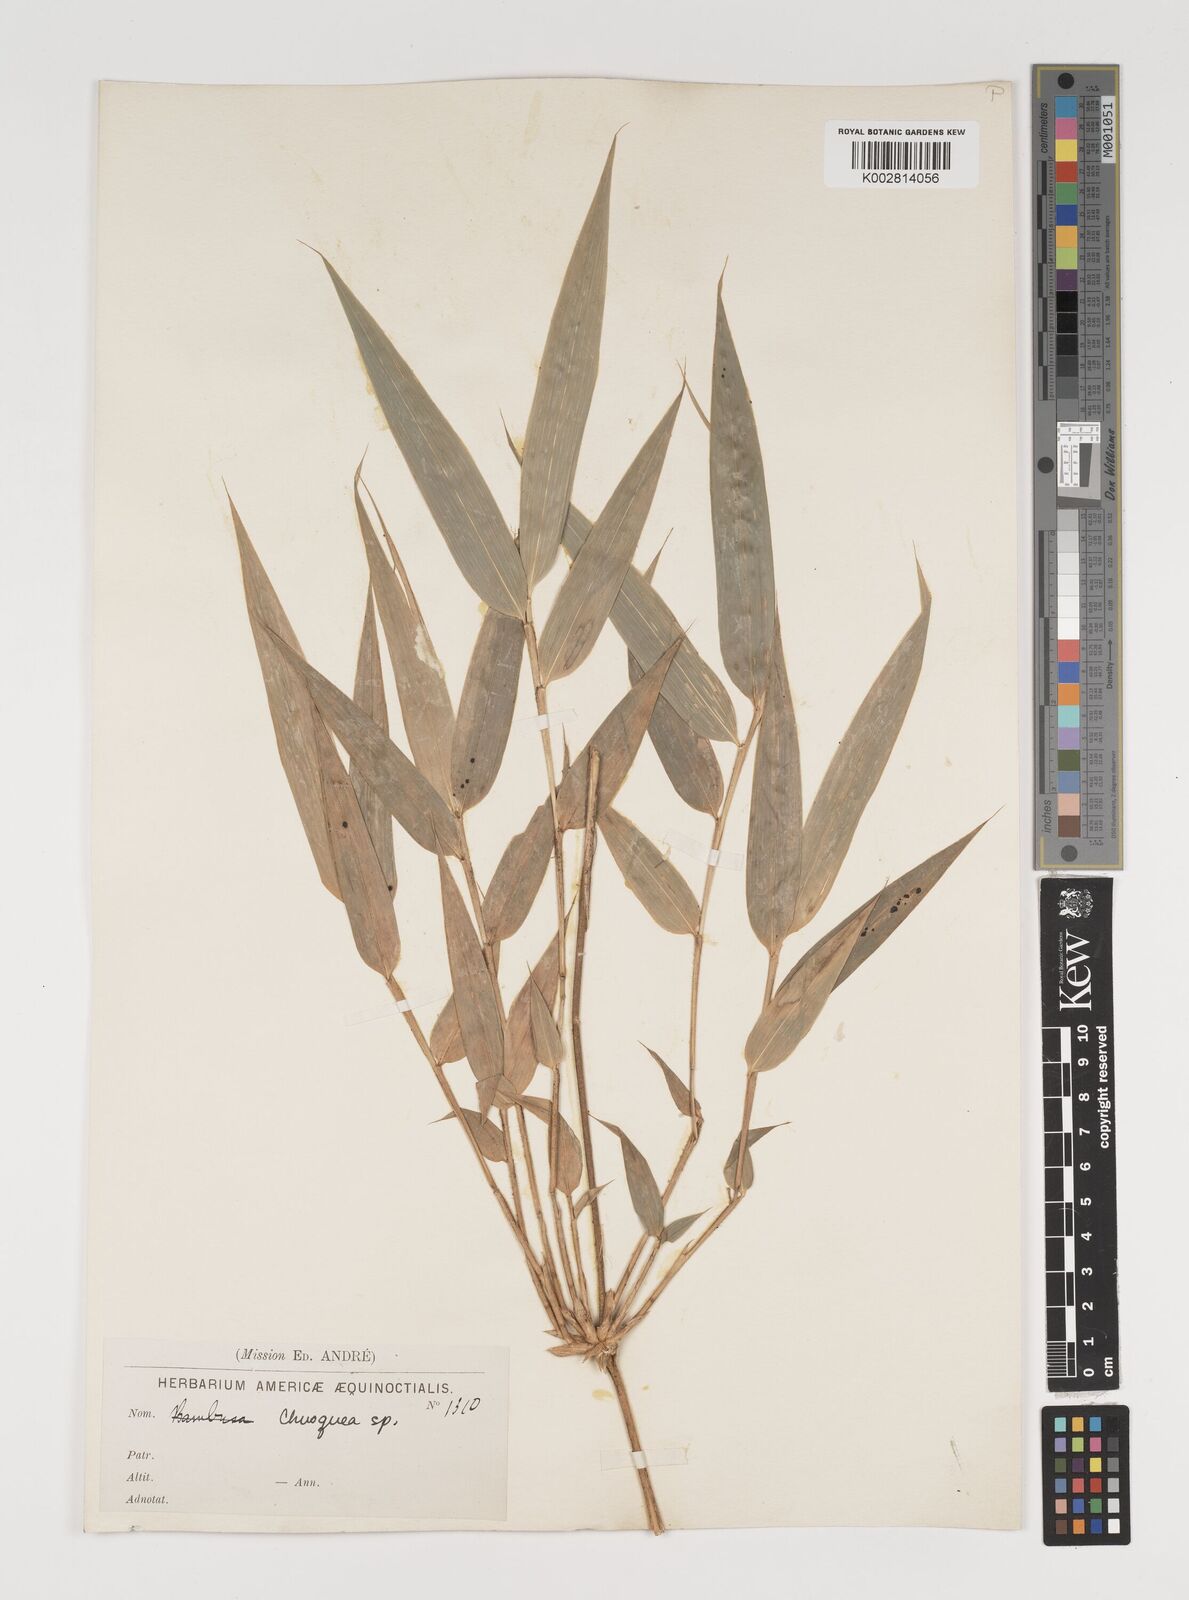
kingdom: Plantae
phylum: Tracheophyta
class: Liliopsida
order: Poales
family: Poaceae
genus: Chusquea
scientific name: Chusquea
